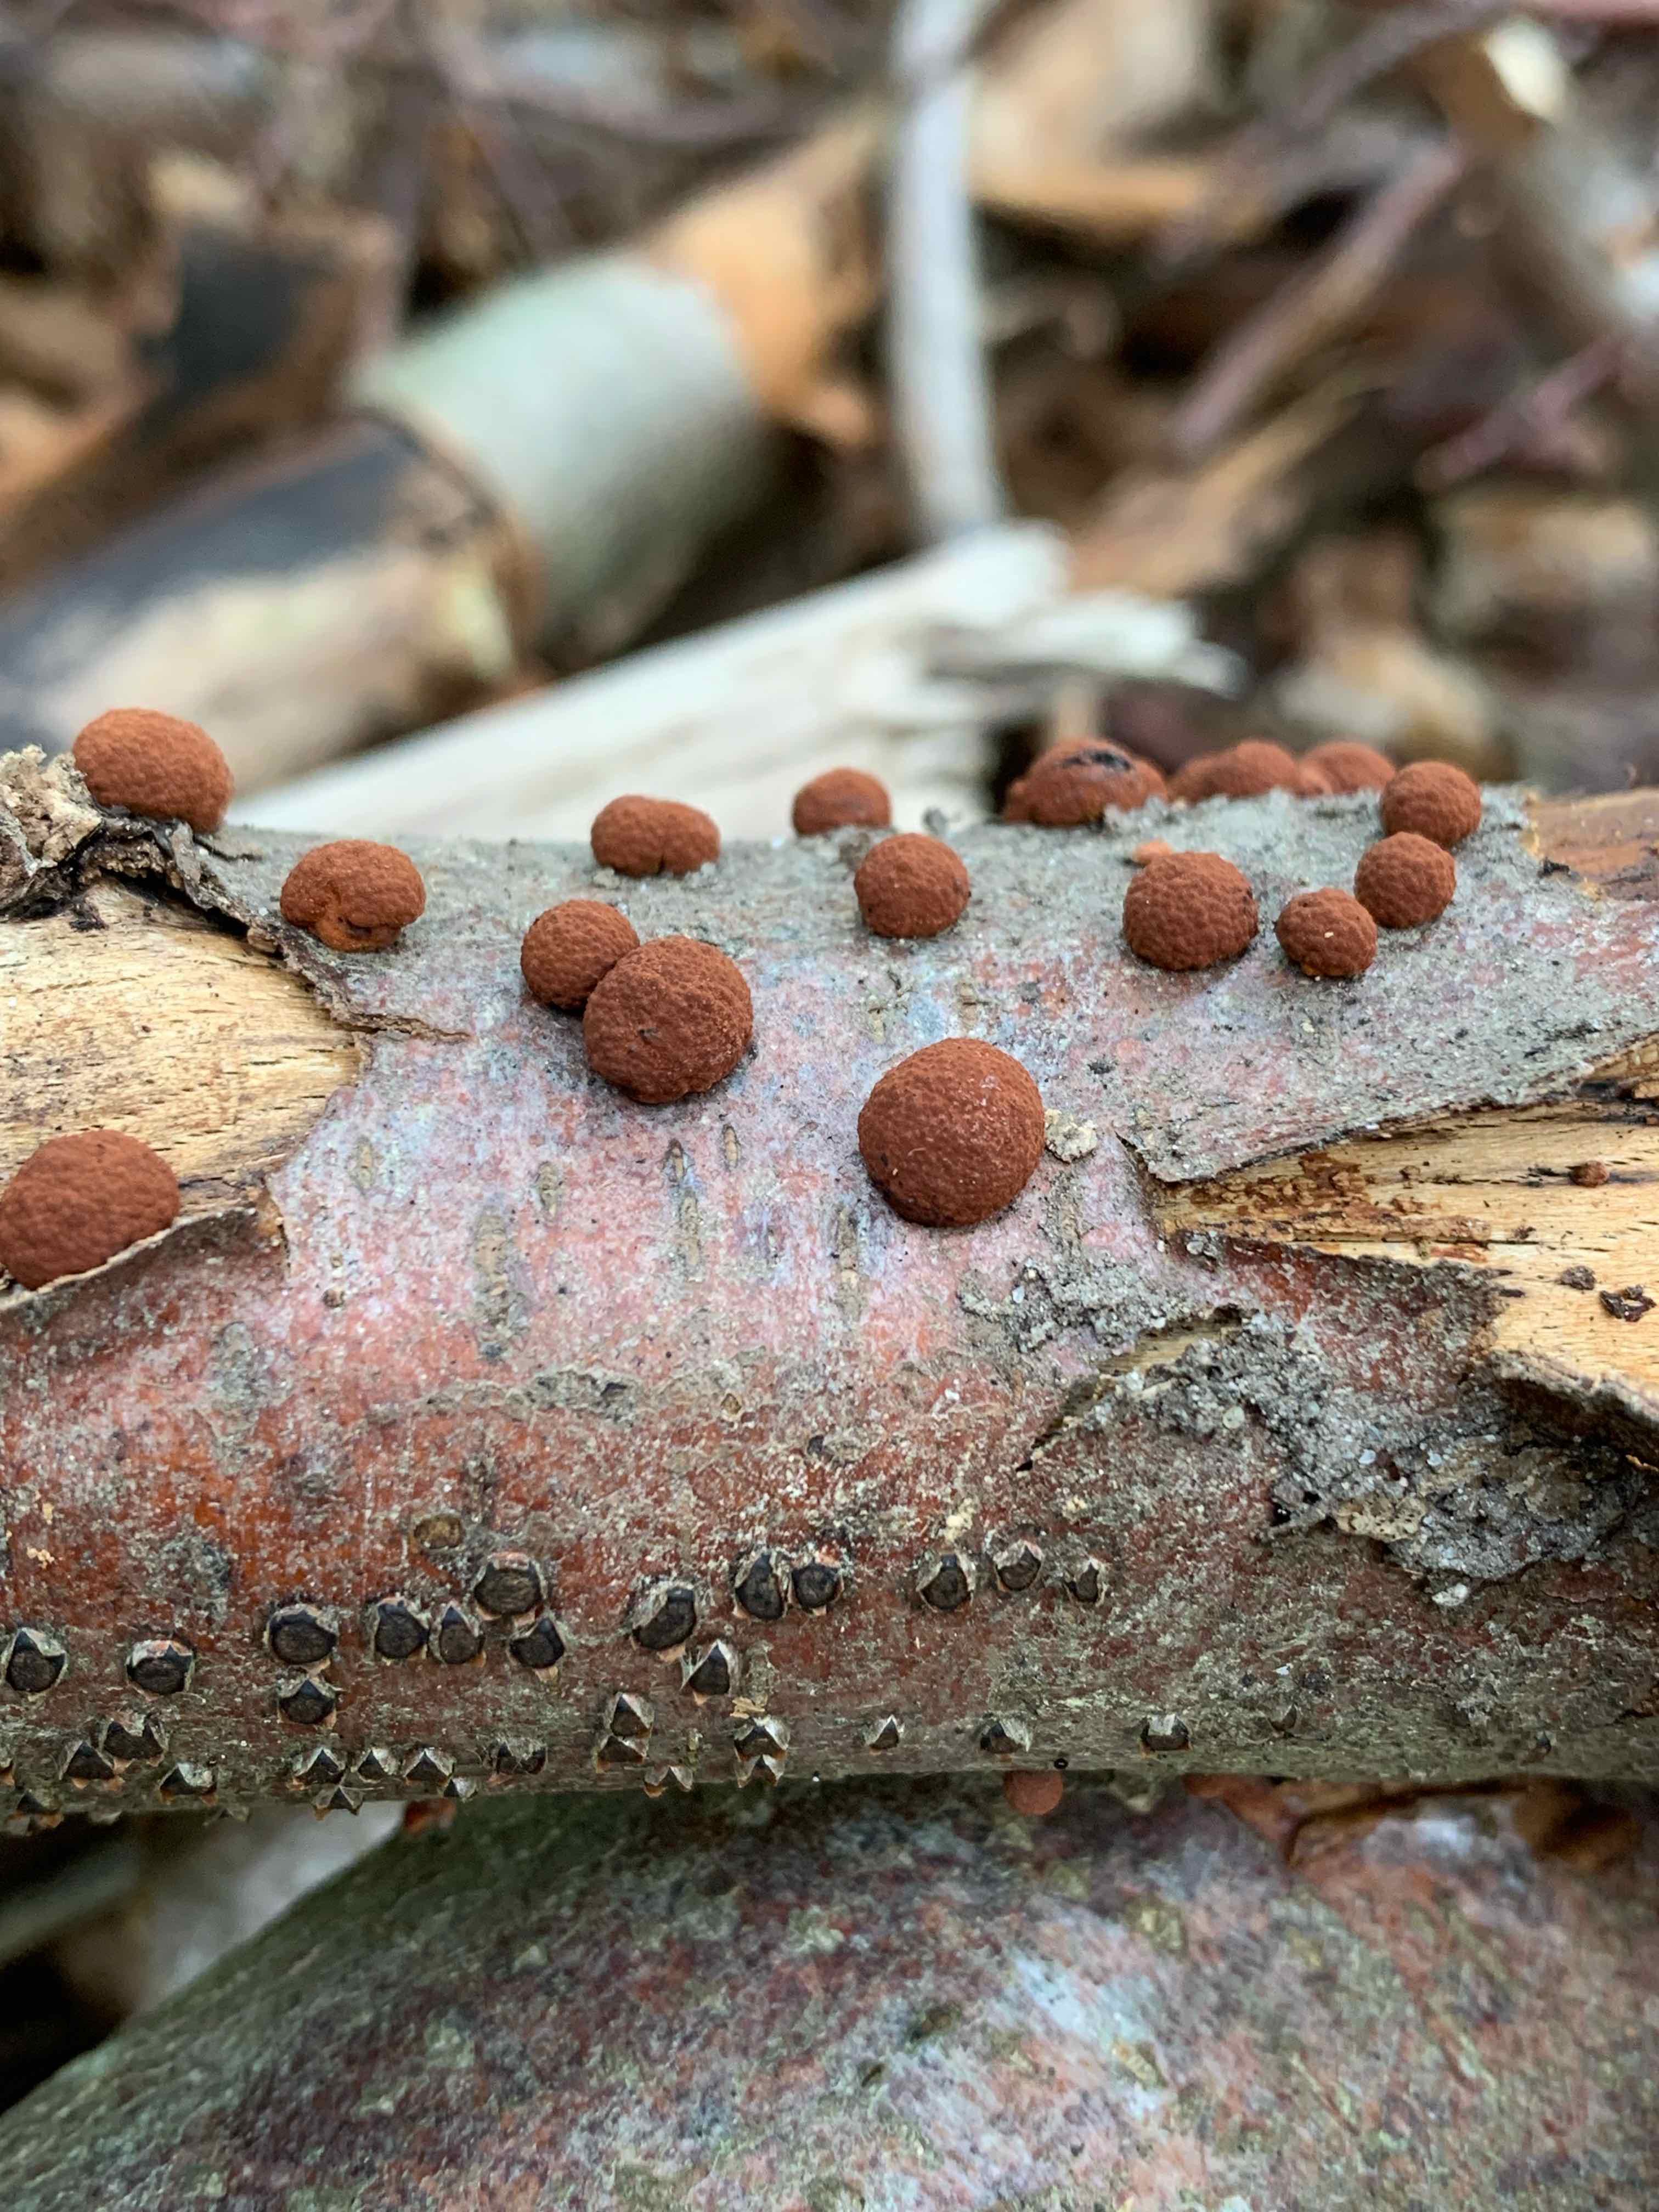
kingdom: Fungi
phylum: Ascomycota
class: Sordariomycetes
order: Xylariales
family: Hypoxylaceae
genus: Hypoxylon
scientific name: Hypoxylon fragiforme
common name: kuljordbær
